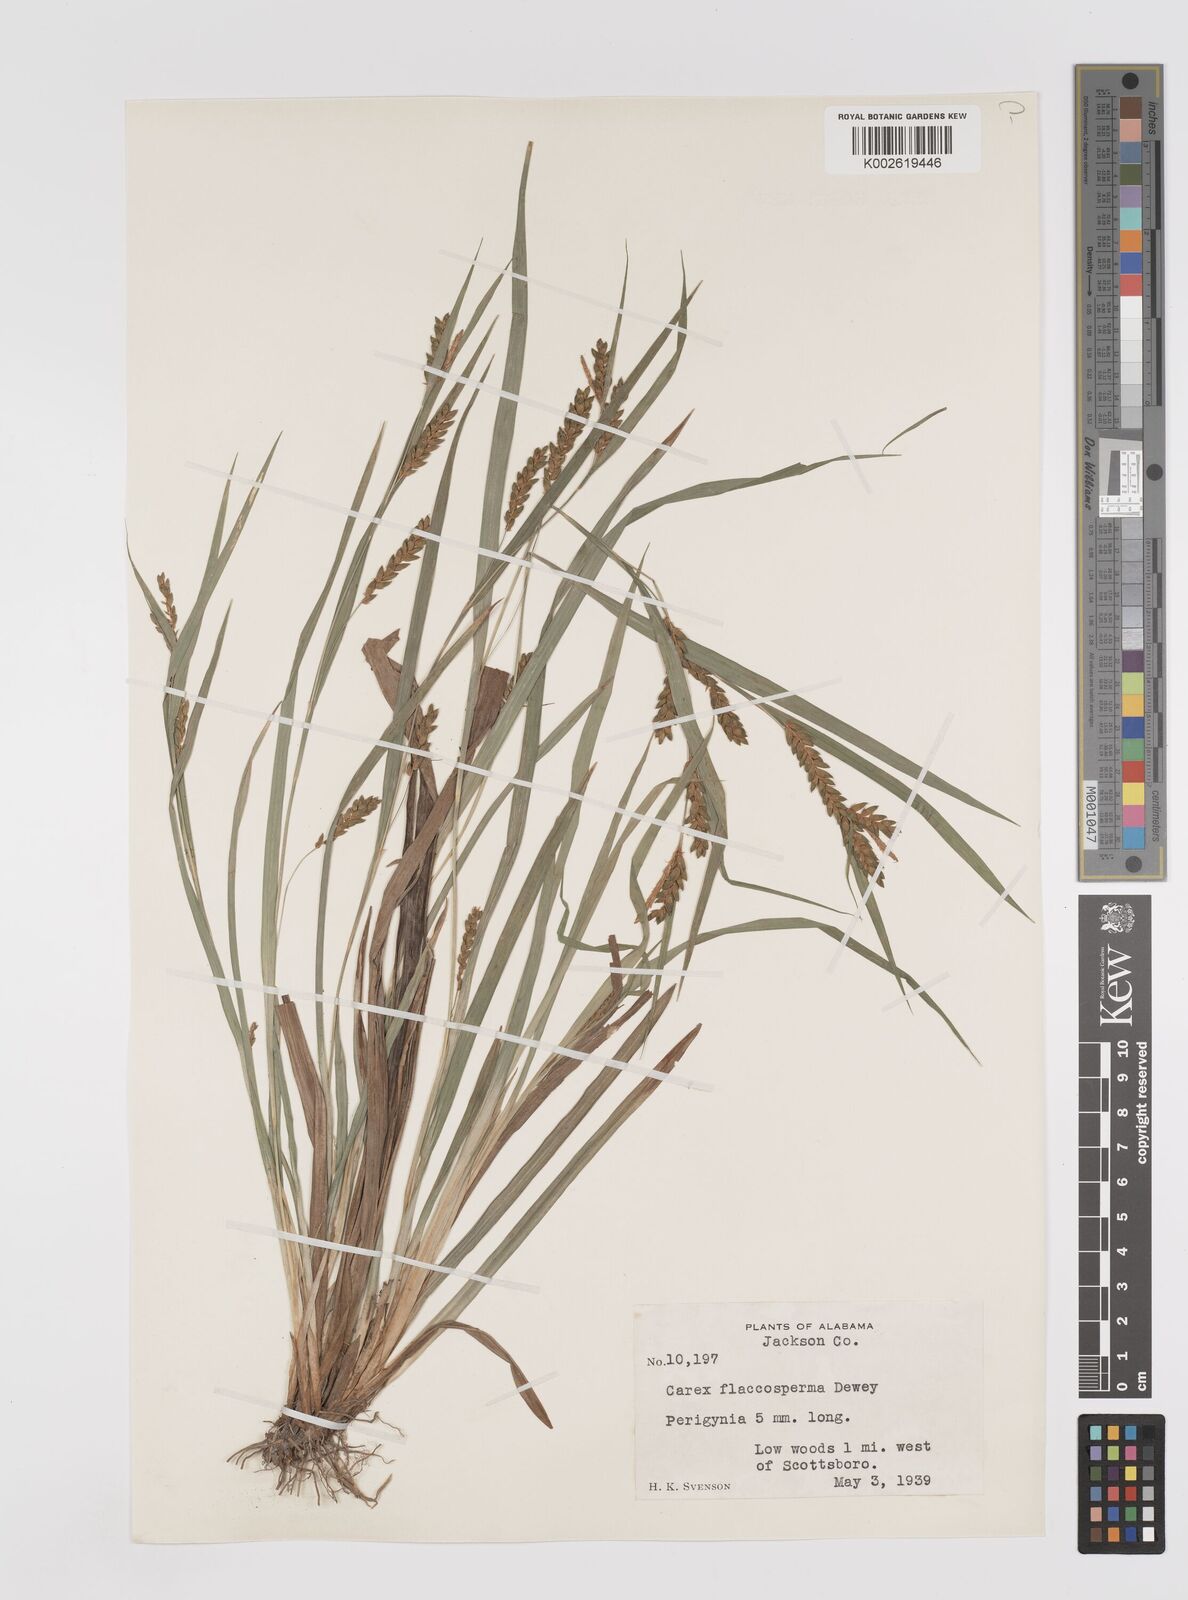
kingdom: Plantae
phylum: Tracheophyta
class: Liliopsida
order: Poales
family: Cyperaceae
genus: Carex
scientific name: Carex flaccosperma
